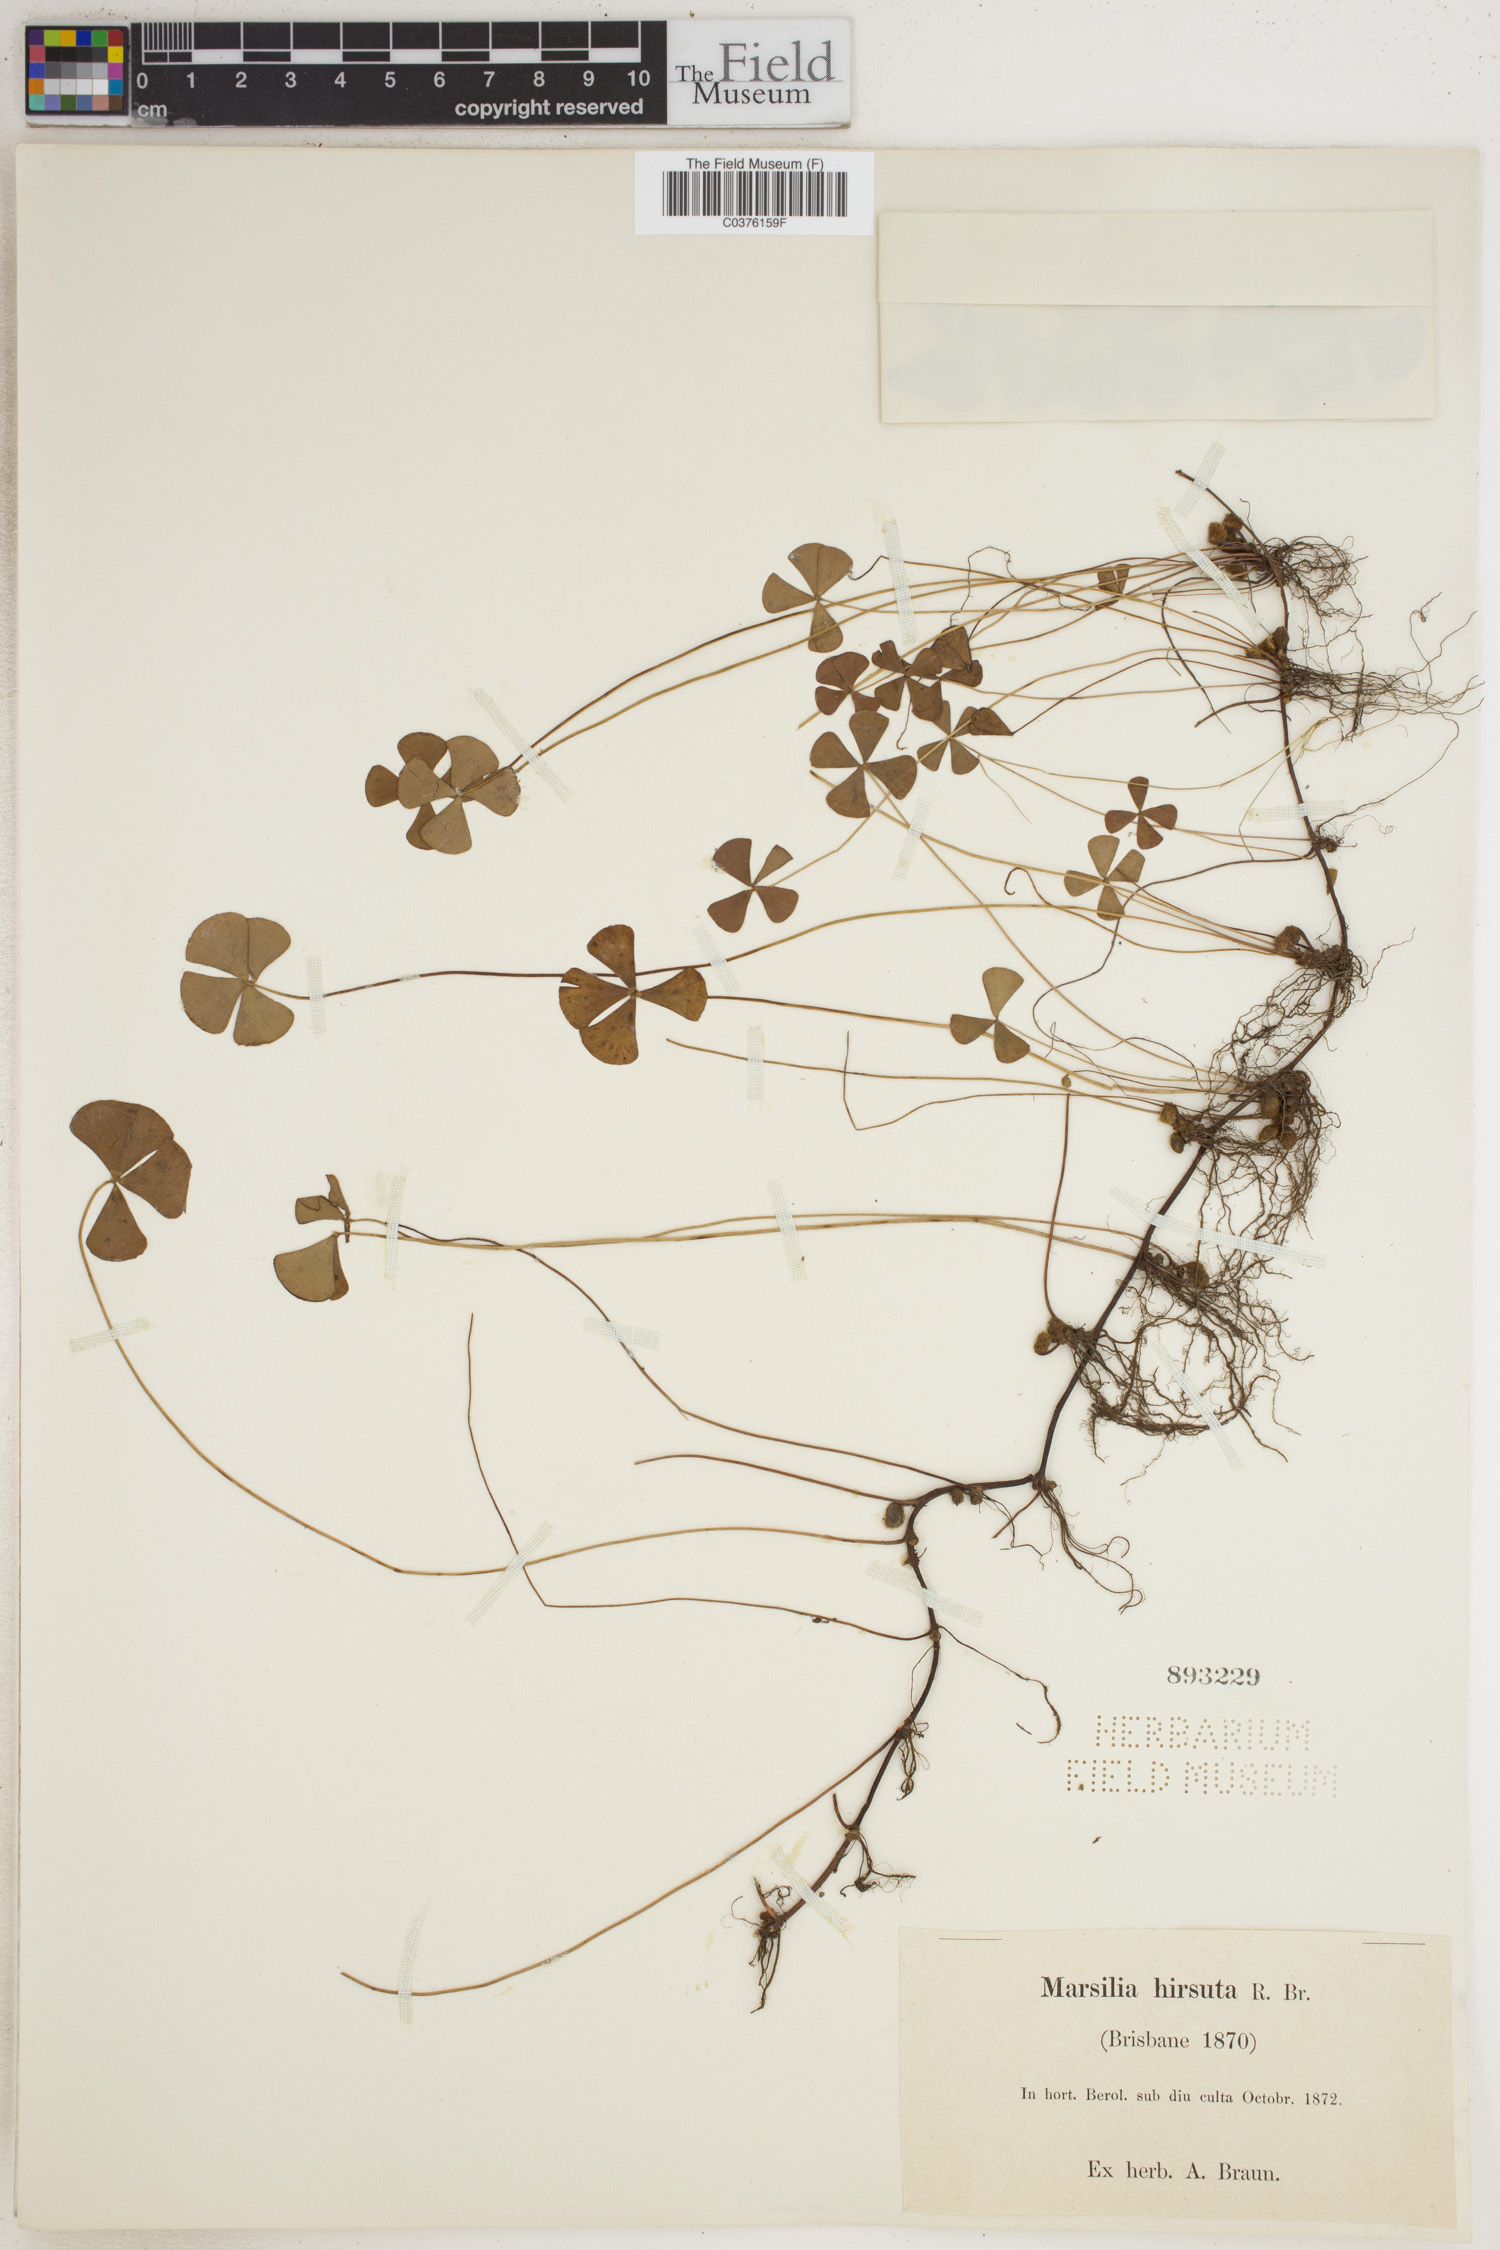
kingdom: Plantae
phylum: Tracheophyta
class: Polypodiopsida
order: Salviniales
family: Marsileaceae
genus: Marsilea
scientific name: Marsilea hirsuta
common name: Rough waterclover
